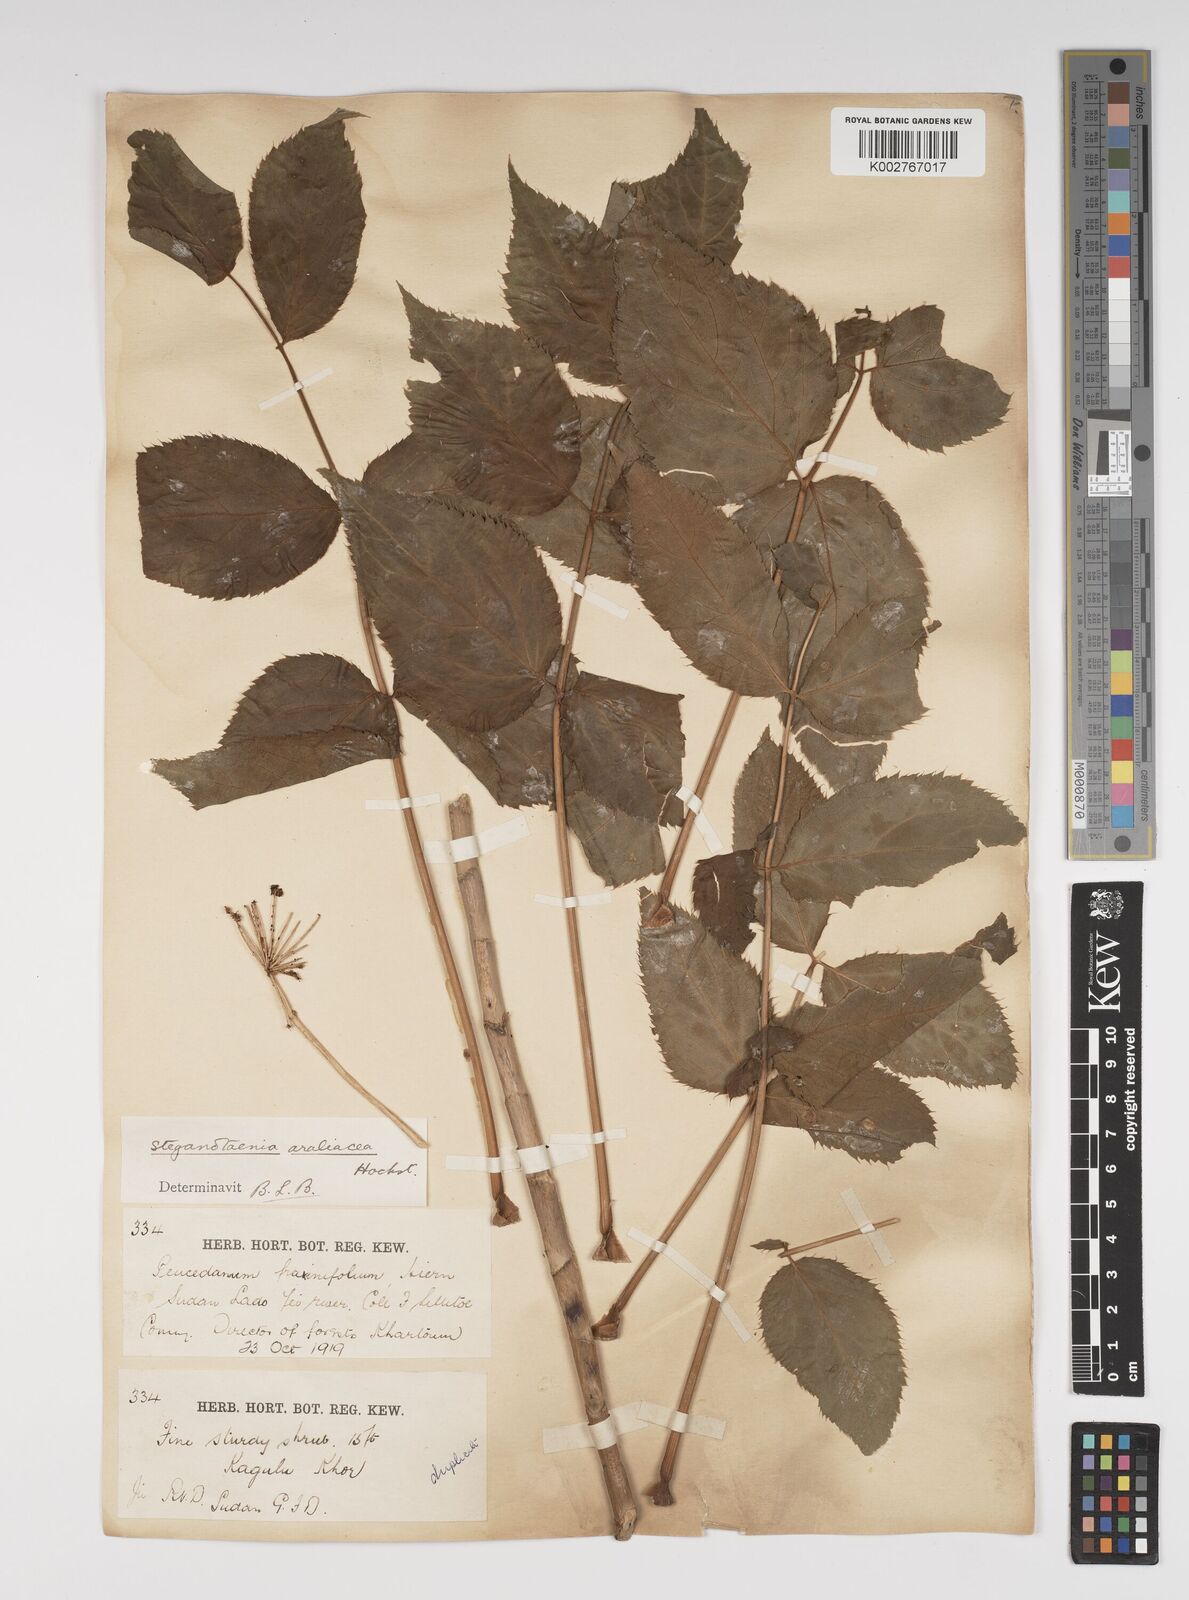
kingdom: Plantae
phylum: Tracheophyta
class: Magnoliopsida
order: Apiales
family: Apiaceae
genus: Steganotaenia
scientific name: Steganotaenia
